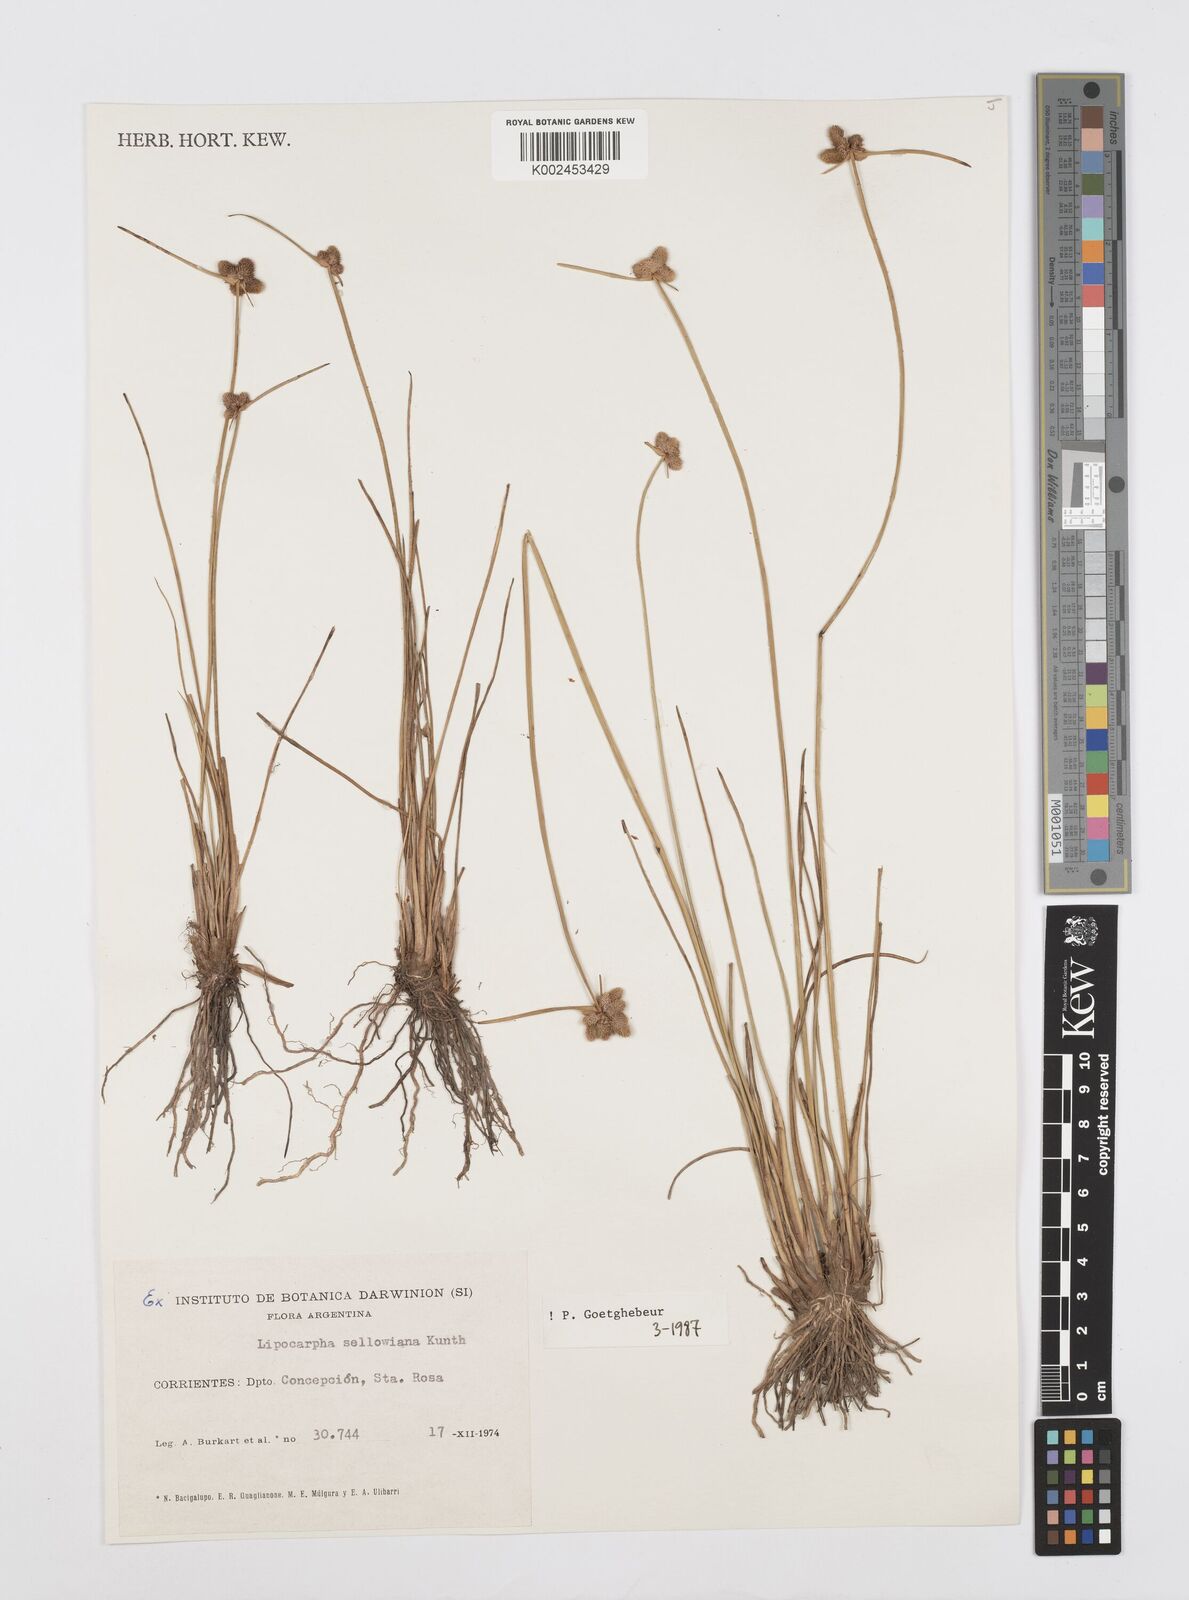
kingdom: Plantae
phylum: Tracheophyta
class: Liliopsida
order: Poales
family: Cyperaceae
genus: Cyperus
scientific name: Cyperus lanceolatus
